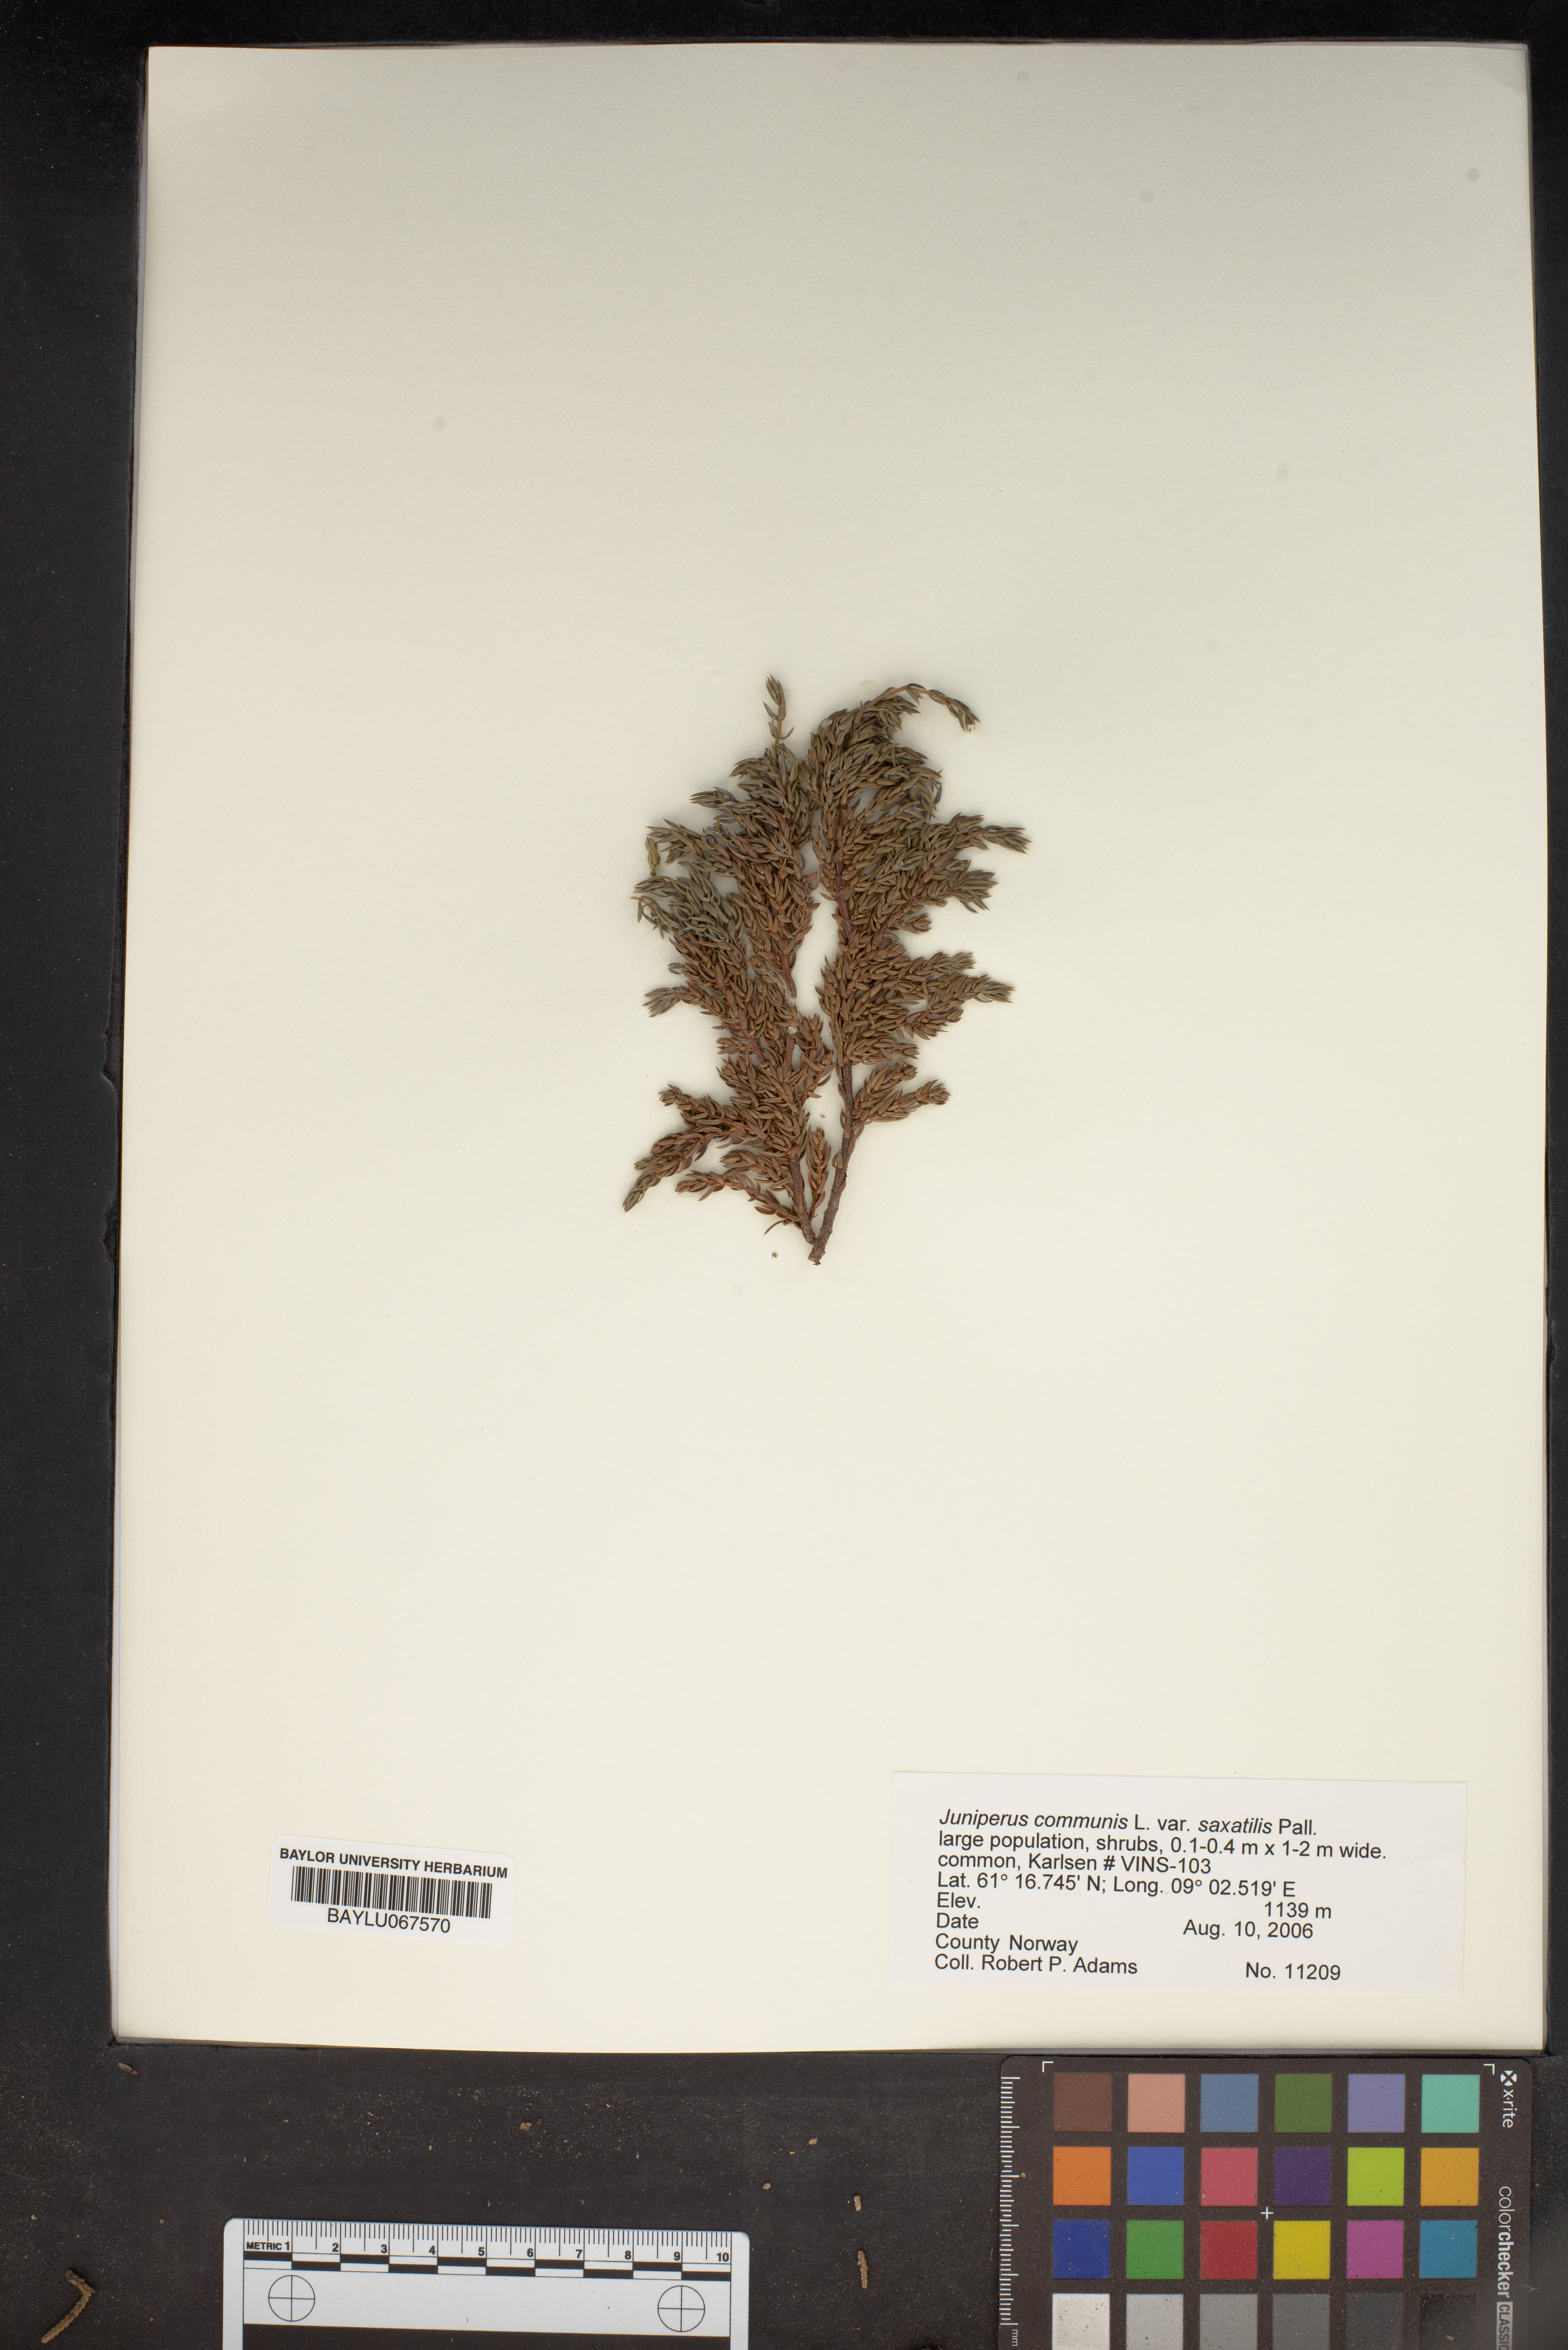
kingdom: Plantae
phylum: Tracheophyta
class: Pinopsida
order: Pinales
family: Cupressaceae
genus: Juniperus
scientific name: Juniperus communis
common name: Common juniper
